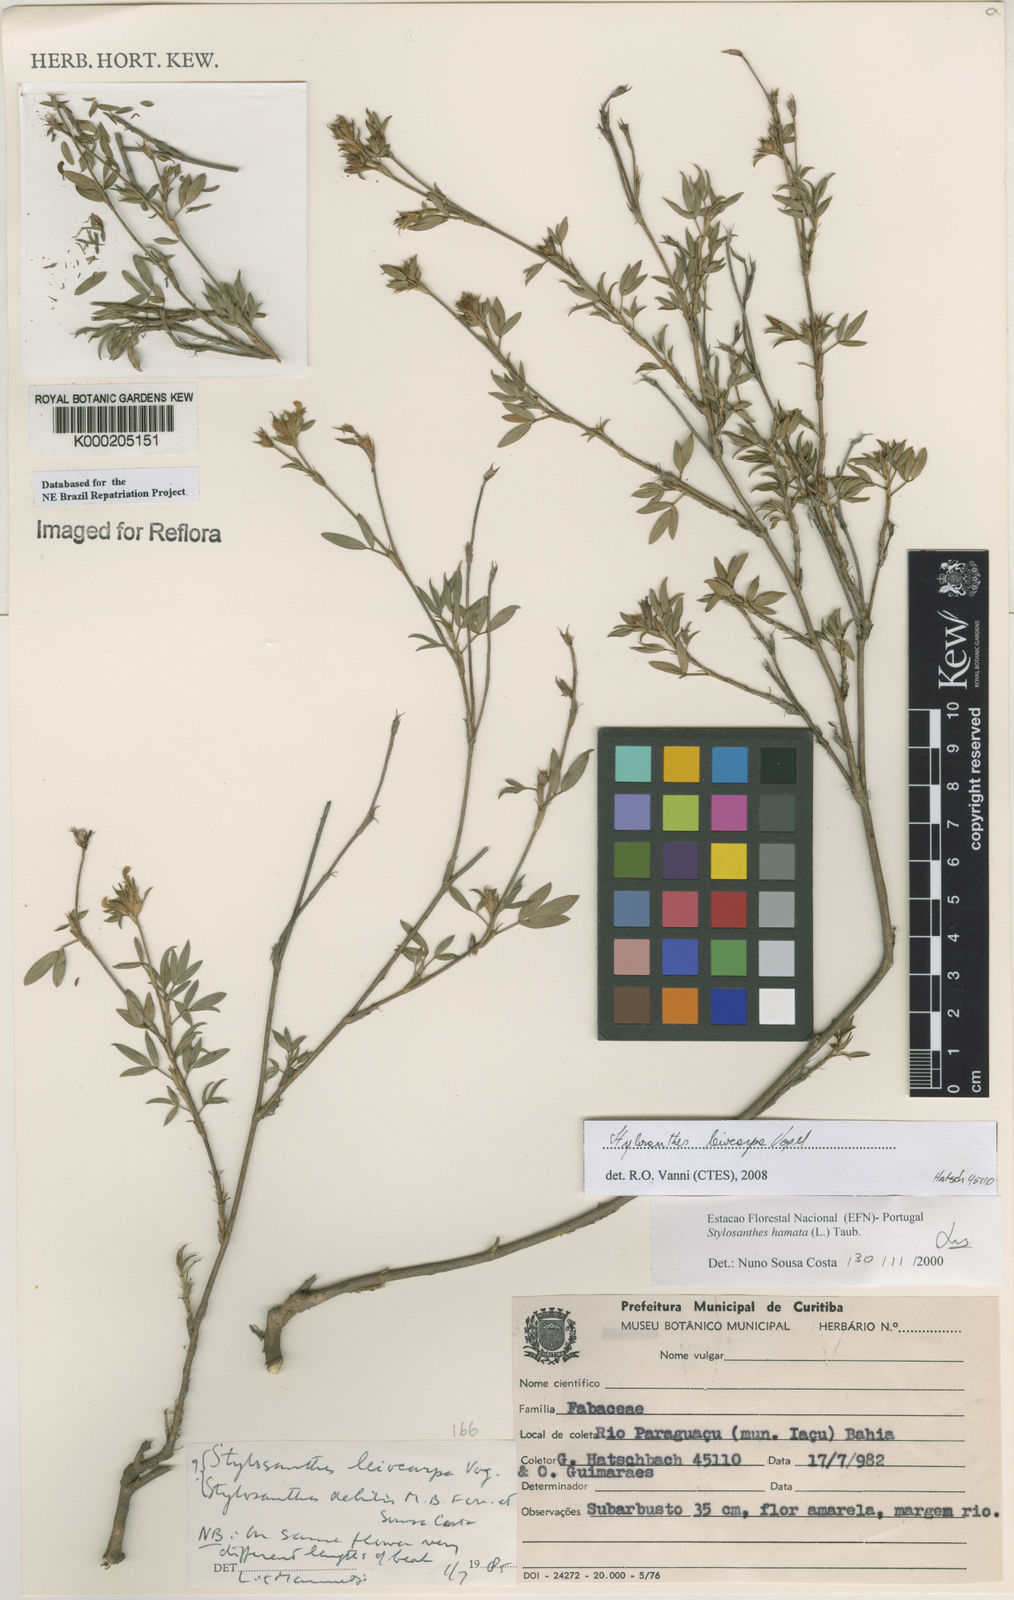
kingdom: Plantae
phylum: Tracheophyta
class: Magnoliopsida
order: Fabales
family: Fabaceae
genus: Stylosanthes
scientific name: Stylosanthes hamata
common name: Cheesytoes
